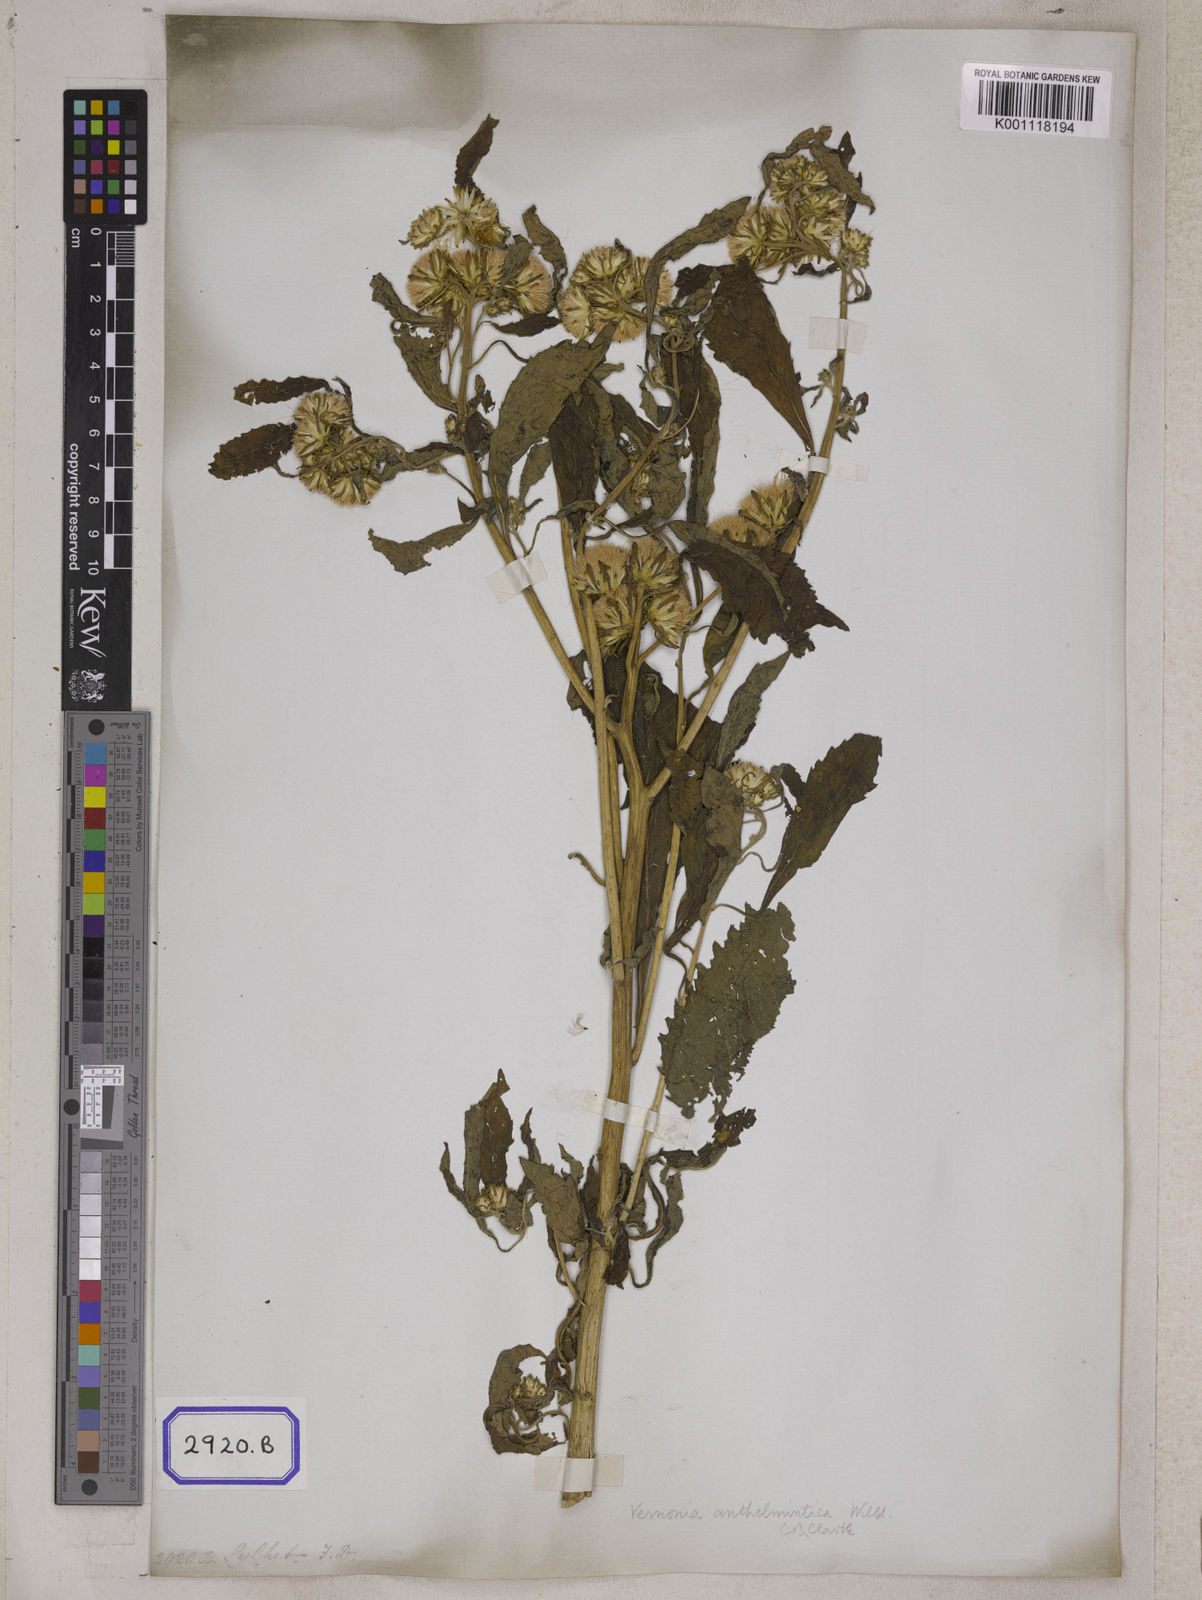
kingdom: Plantae
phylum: Tracheophyta
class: Magnoliopsida
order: Asterales
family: Asteraceae
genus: Baccharoides
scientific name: Baccharoides anthelmintica
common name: Kinka-oil
